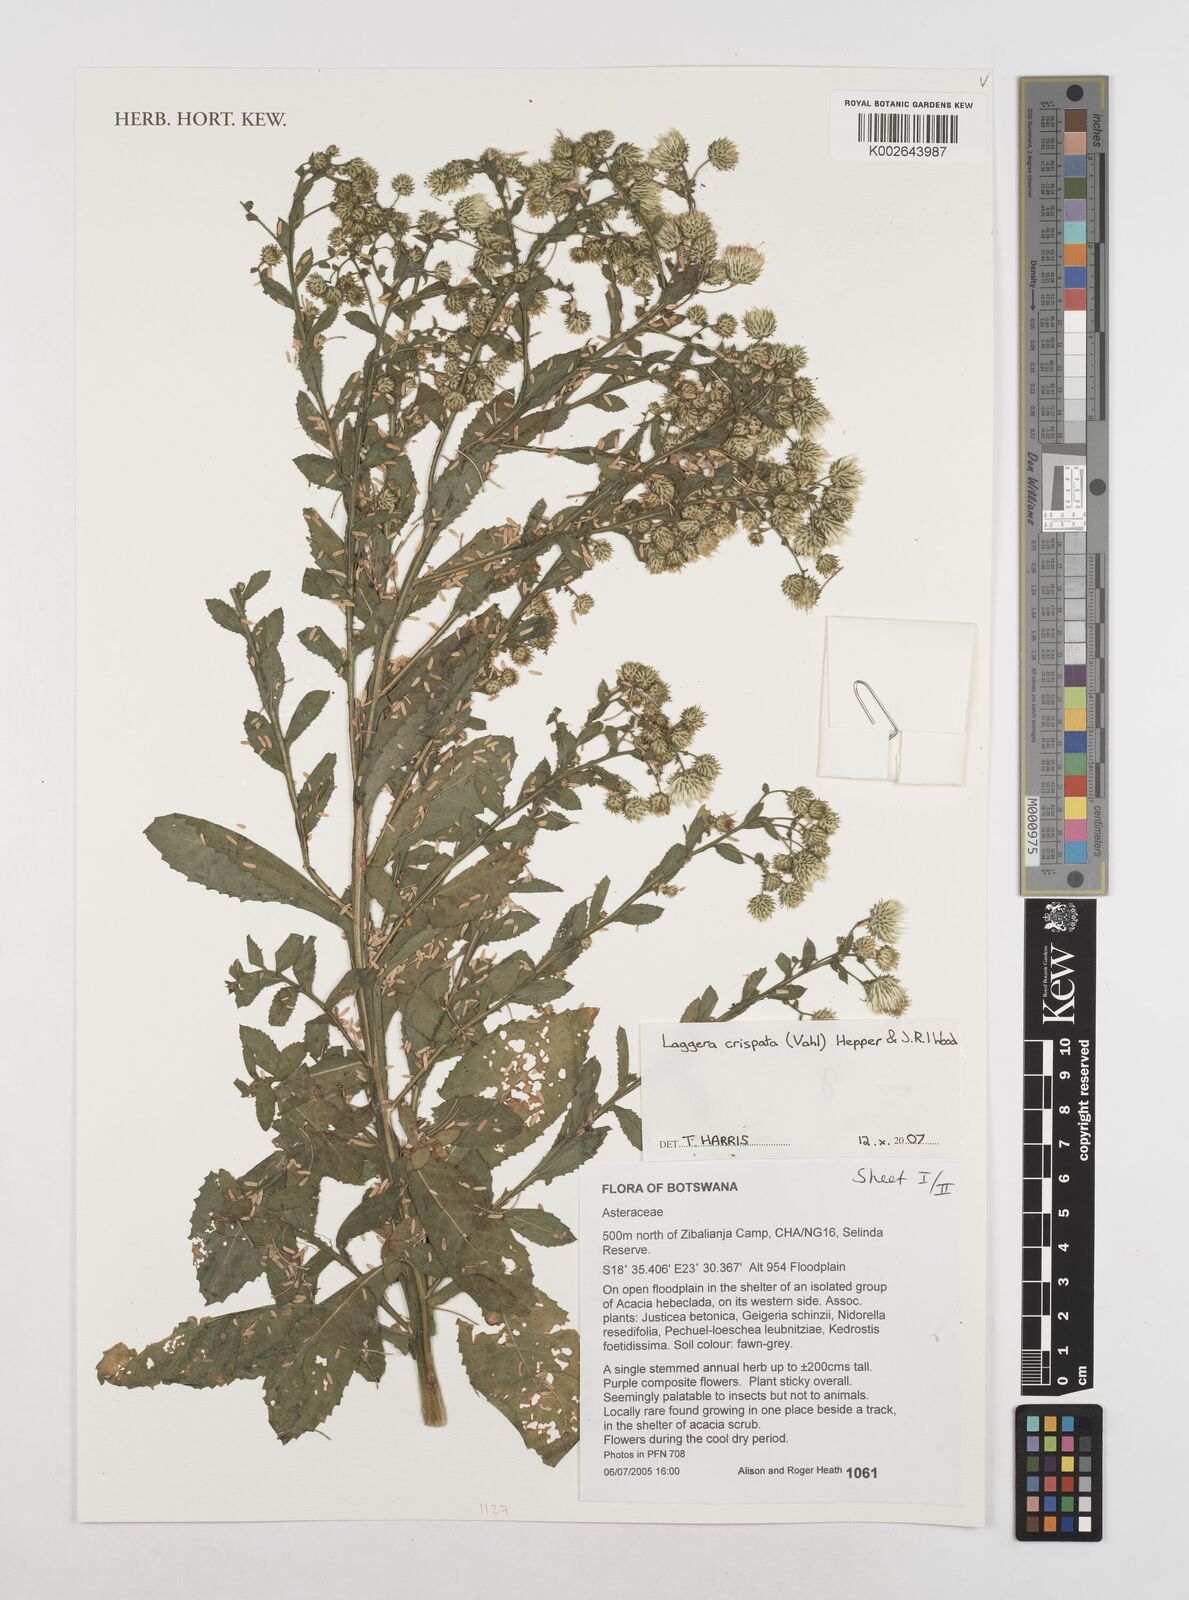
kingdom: Plantae
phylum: Tracheophyta
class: Magnoliopsida
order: Asterales
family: Asteraceae
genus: Laggera
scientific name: Laggera alata
